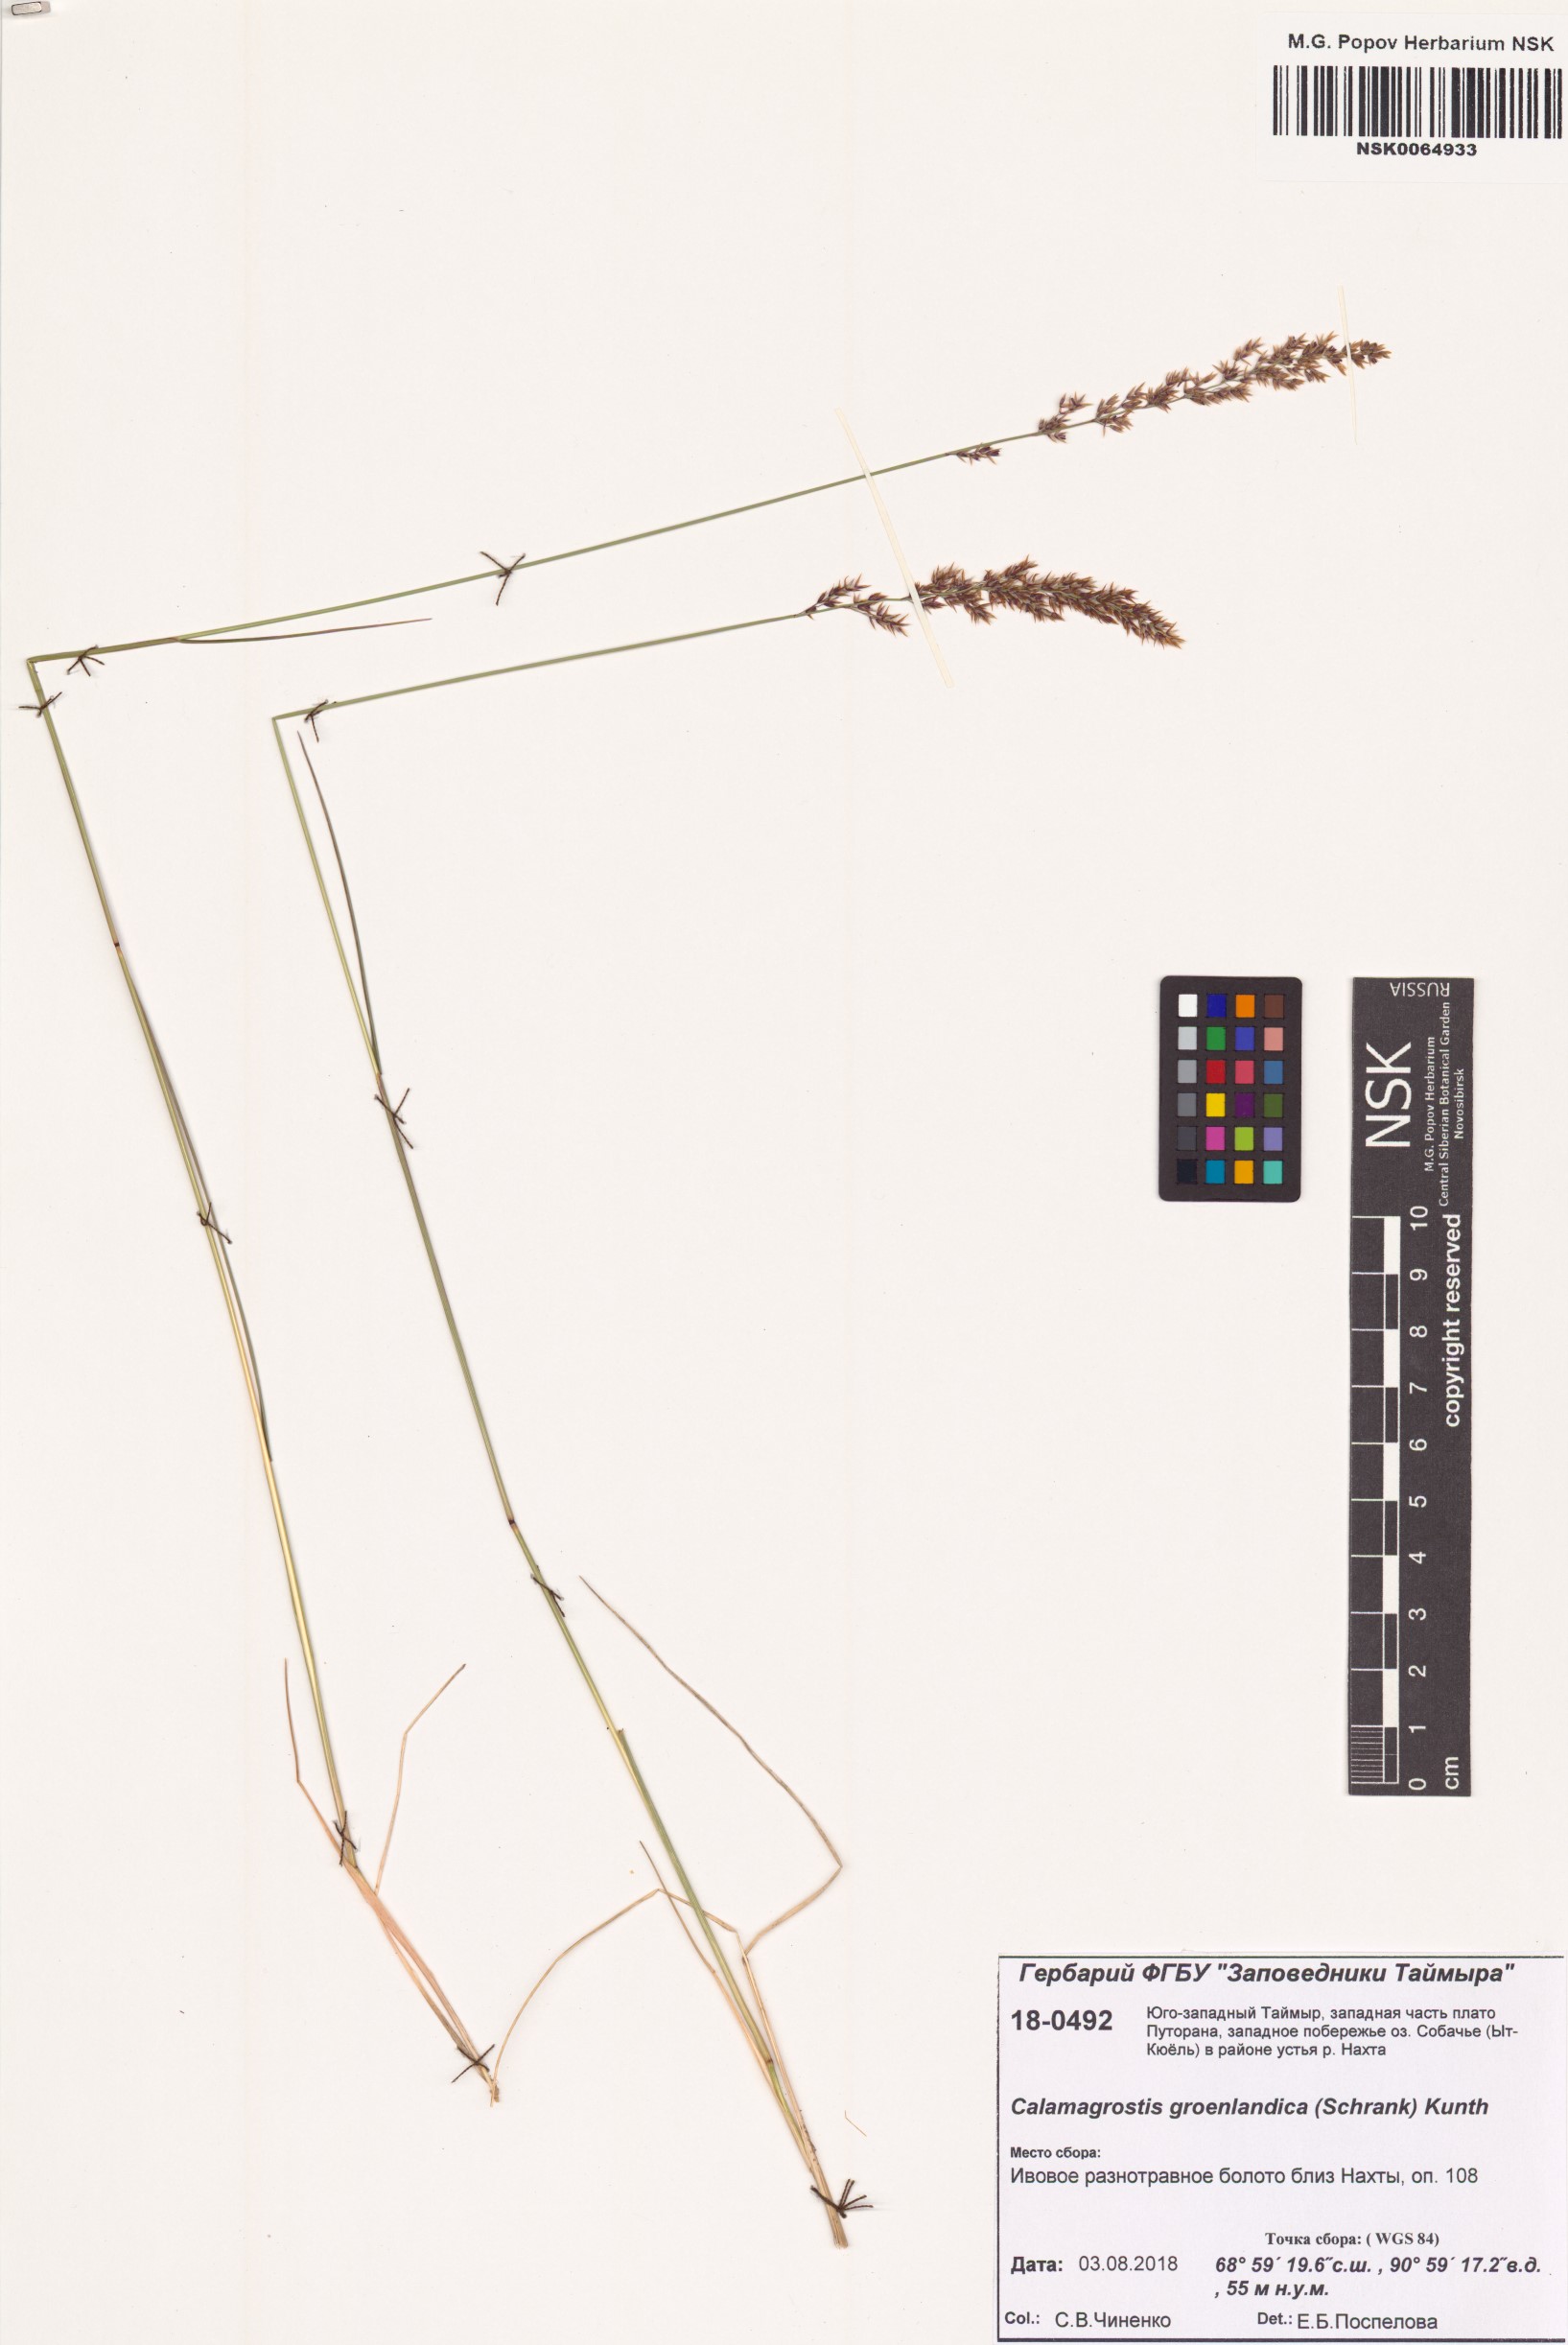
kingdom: Plantae
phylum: Tracheophyta
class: Liliopsida
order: Poales
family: Poaceae
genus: Calamagrostis
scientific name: Calamagrostis stricta
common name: Narrow small-reed
